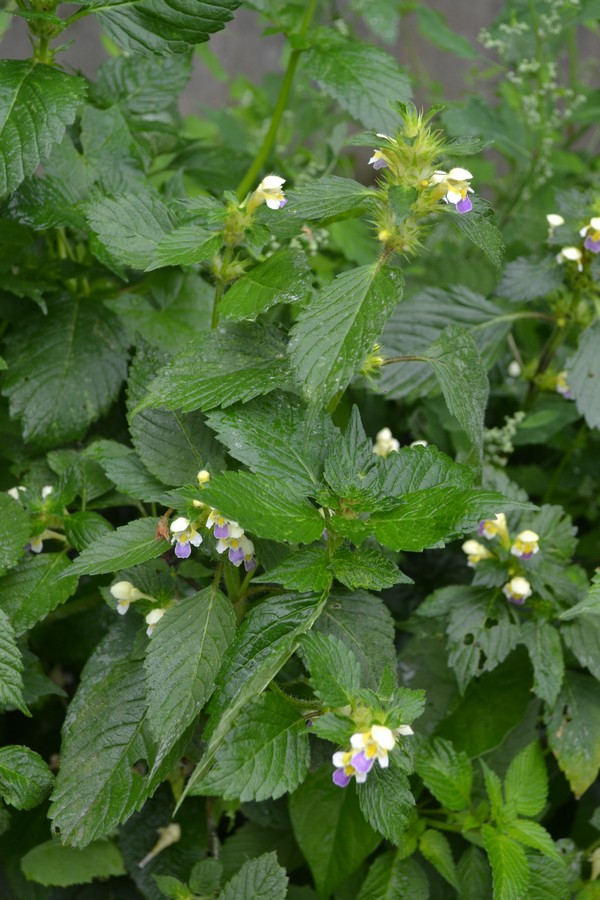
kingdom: Plantae
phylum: Tracheophyta
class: Magnoliopsida
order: Lamiales
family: Lamiaceae
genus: Galeopsis
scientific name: Galeopsis speciosa
